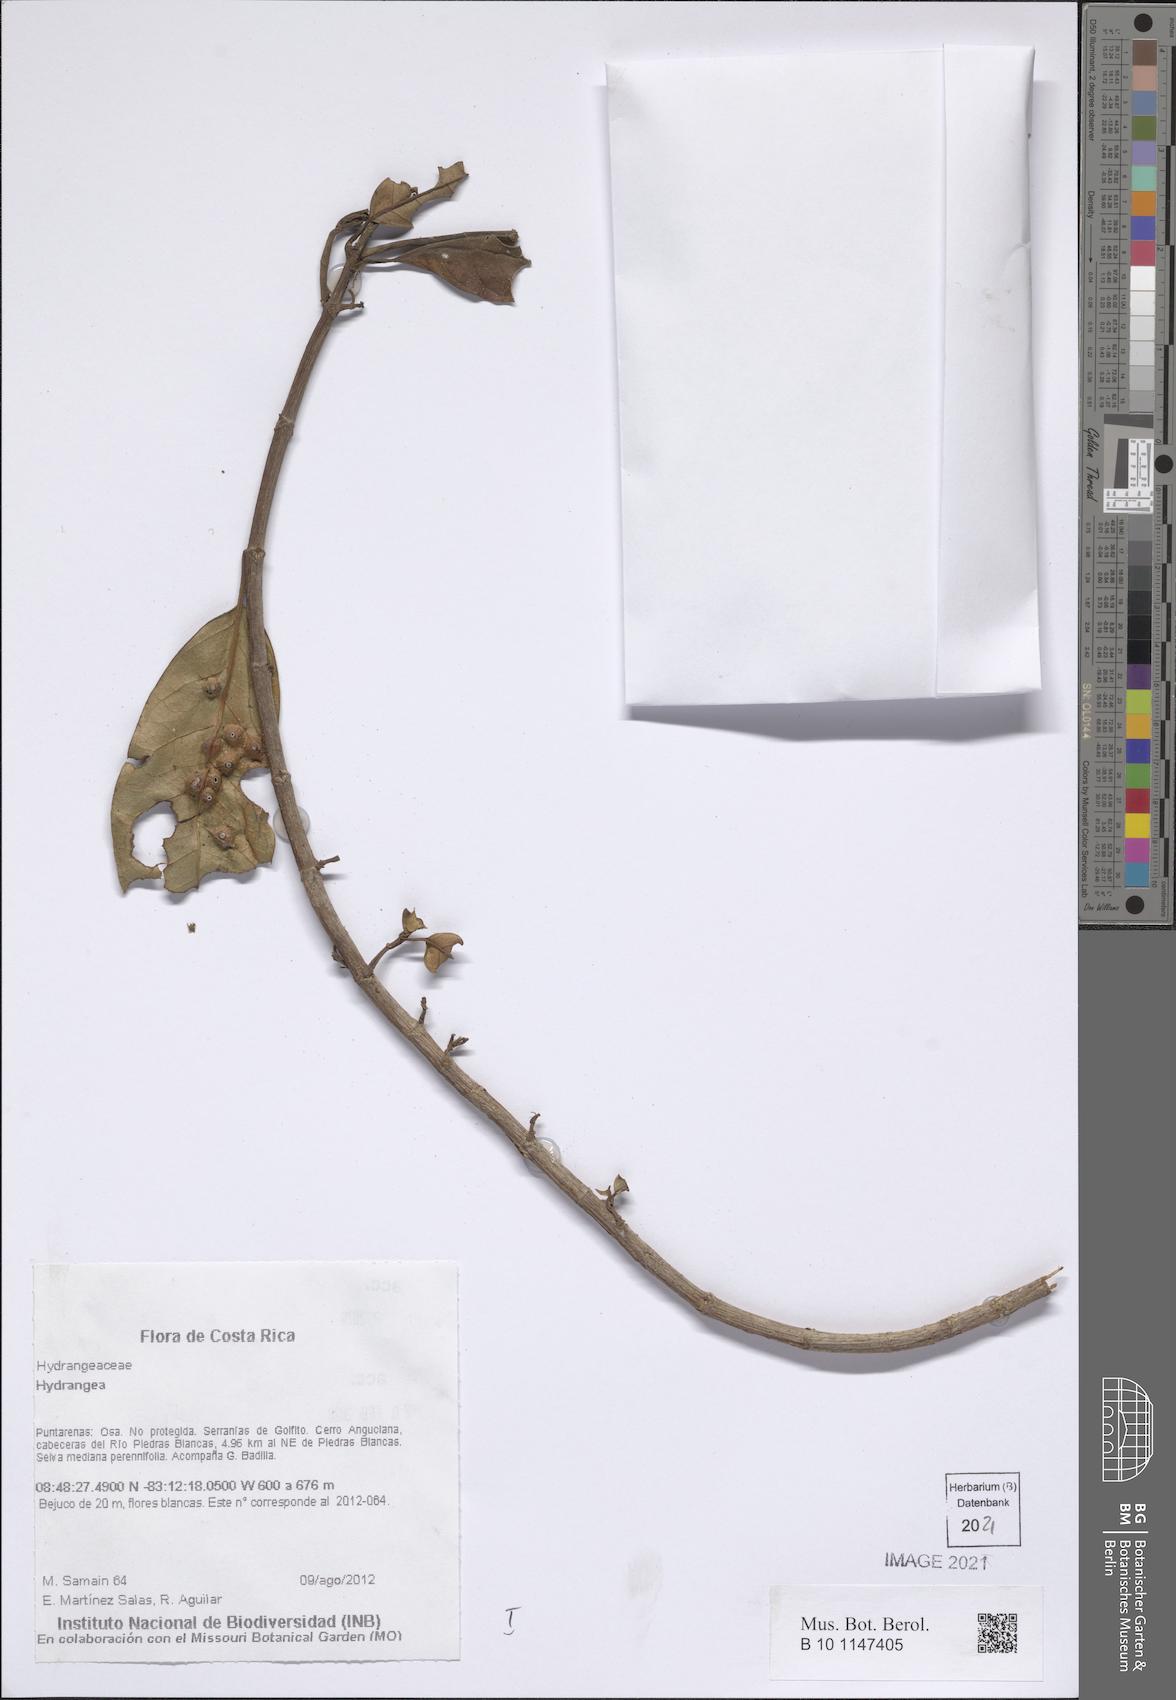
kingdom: Plantae
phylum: Tracheophyta
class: Magnoliopsida
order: Cornales
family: Hydrangeaceae
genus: Hydrangea
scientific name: Hydrangea
